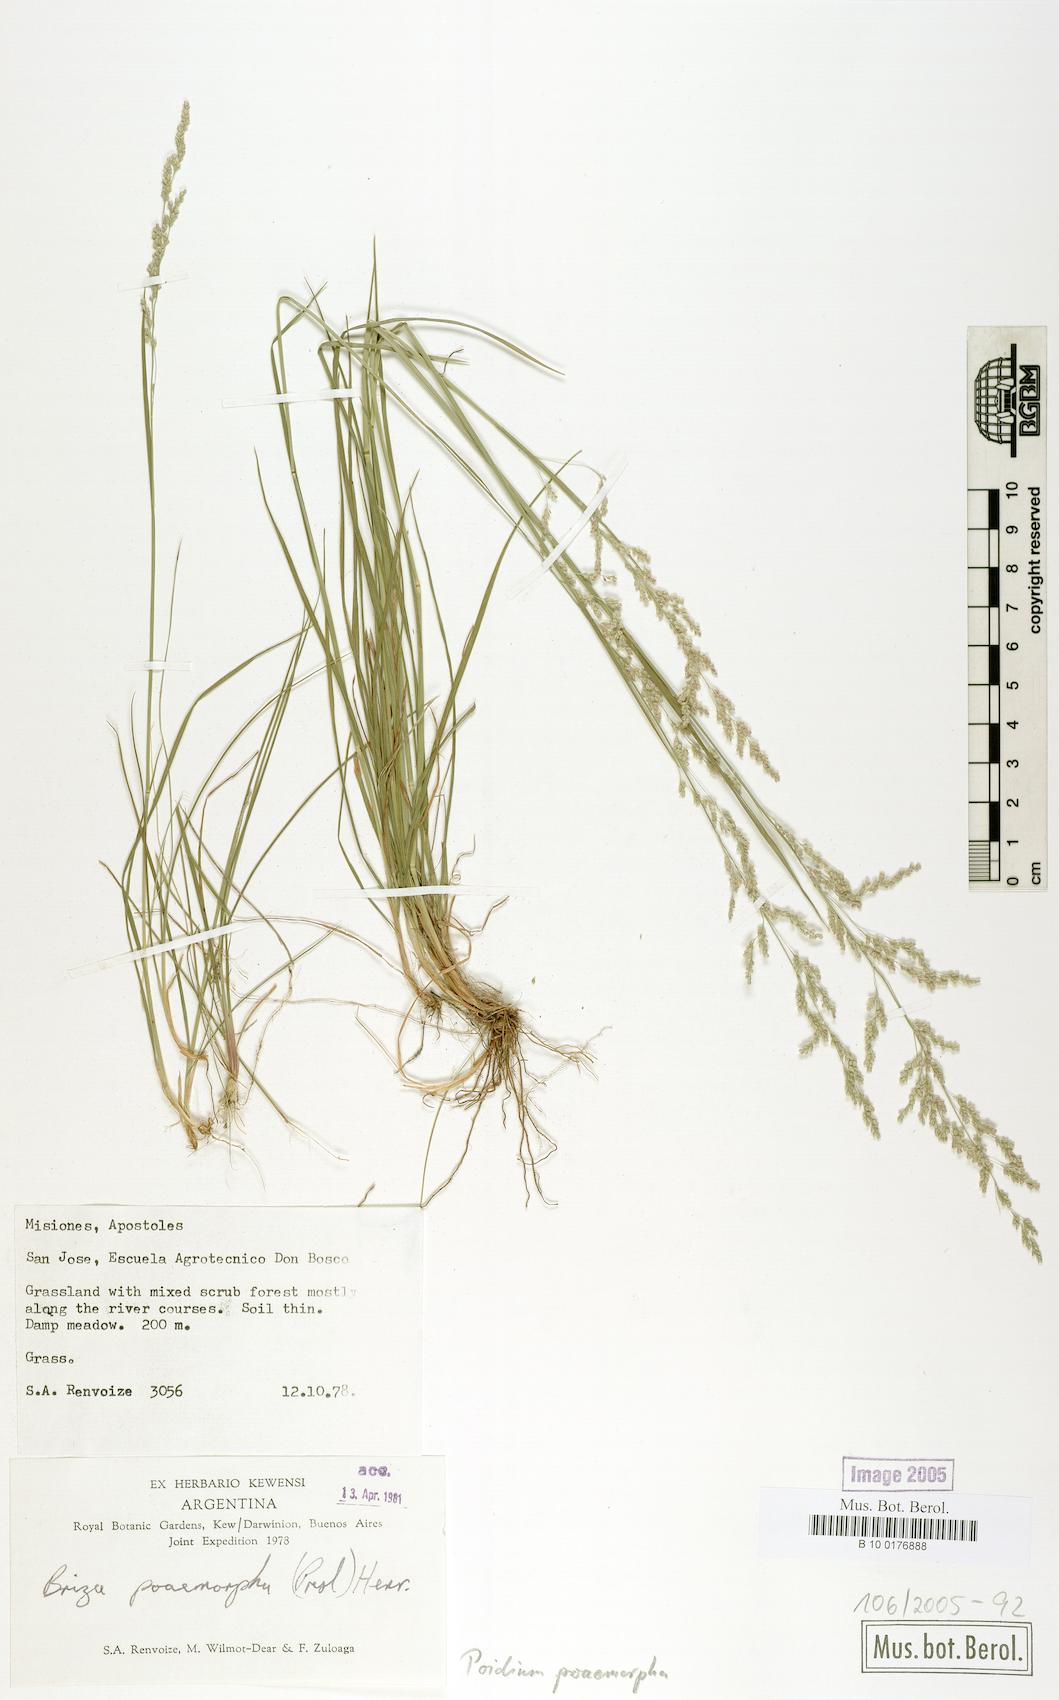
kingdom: Plantae
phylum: Tracheophyta
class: Liliopsida
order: Poales
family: Poaceae
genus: Chascolytrum
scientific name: Chascolytrum poomorphum
